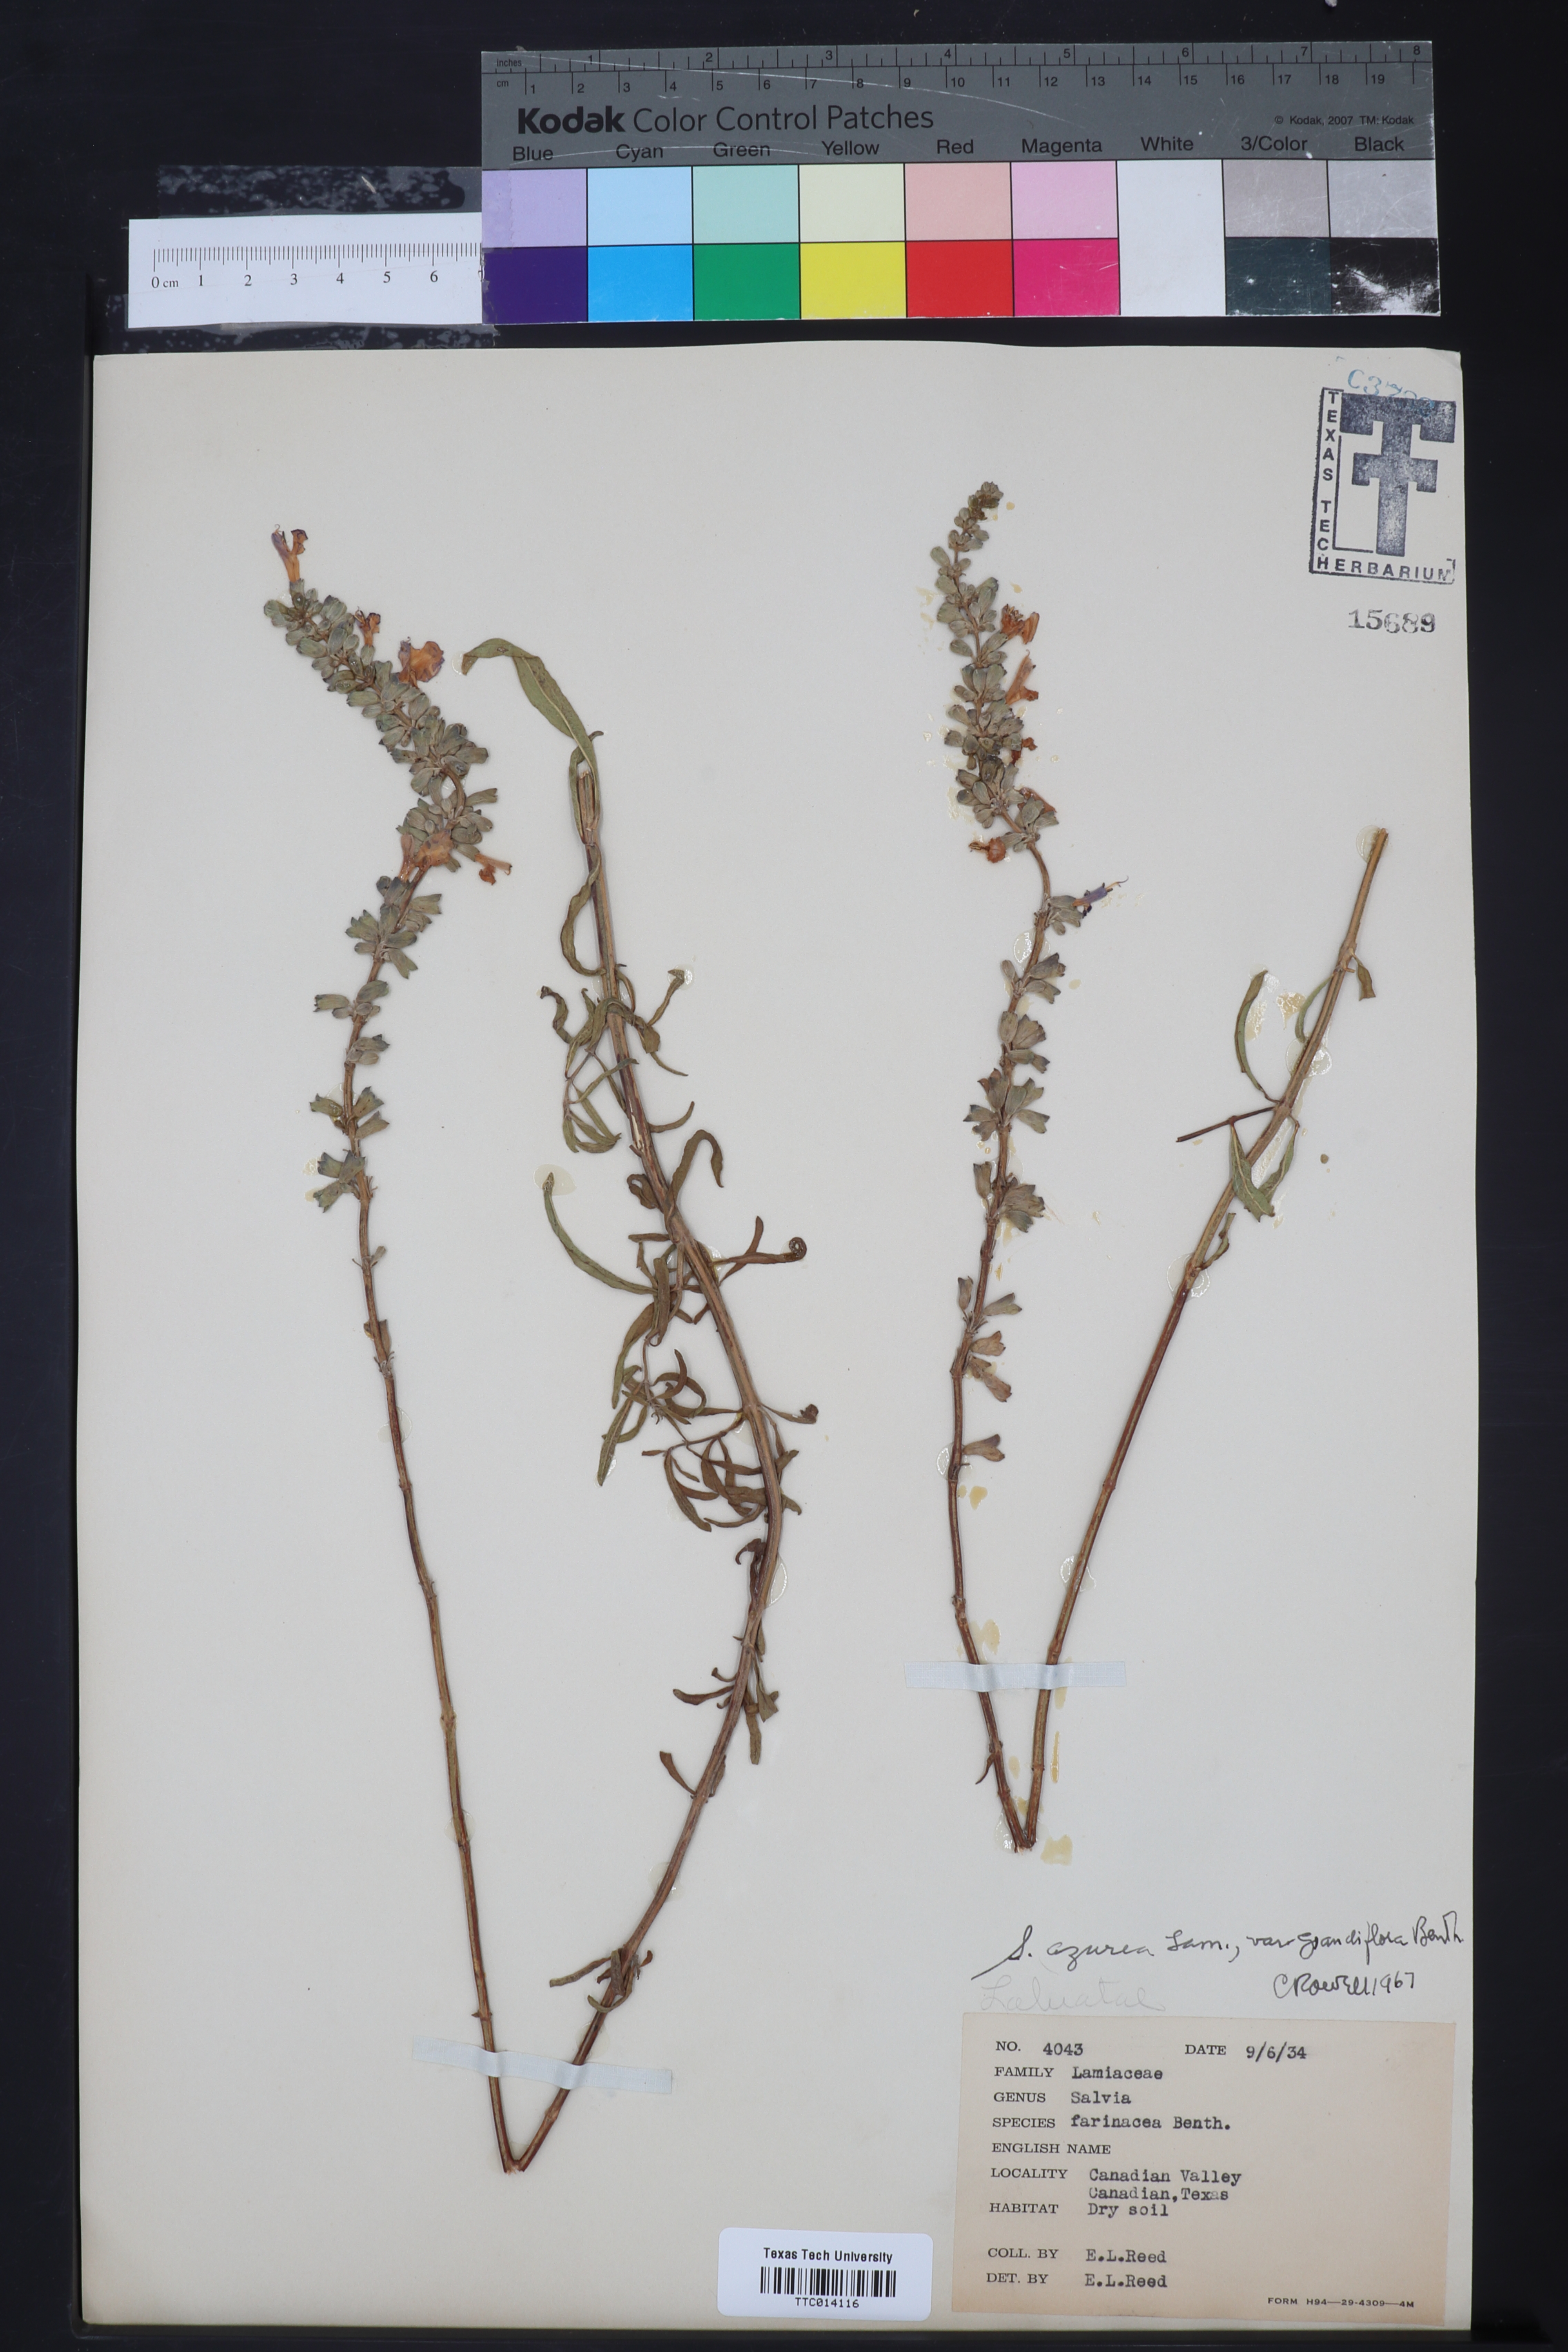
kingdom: Plantae
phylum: Tracheophyta
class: Magnoliopsida
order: Lamiales
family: Lamiaceae
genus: Salvia
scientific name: Salvia azurea
